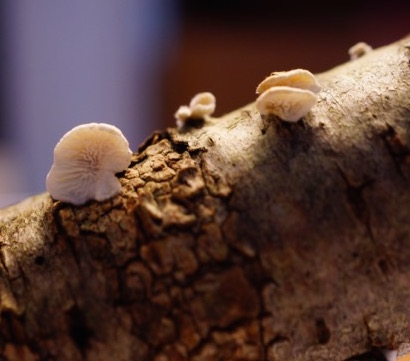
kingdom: Fungi
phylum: Basidiomycota
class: Agaricomycetes
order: Amylocorticiales
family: Amylocorticiaceae
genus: Plicaturopsis
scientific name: Plicaturopsis crispa
